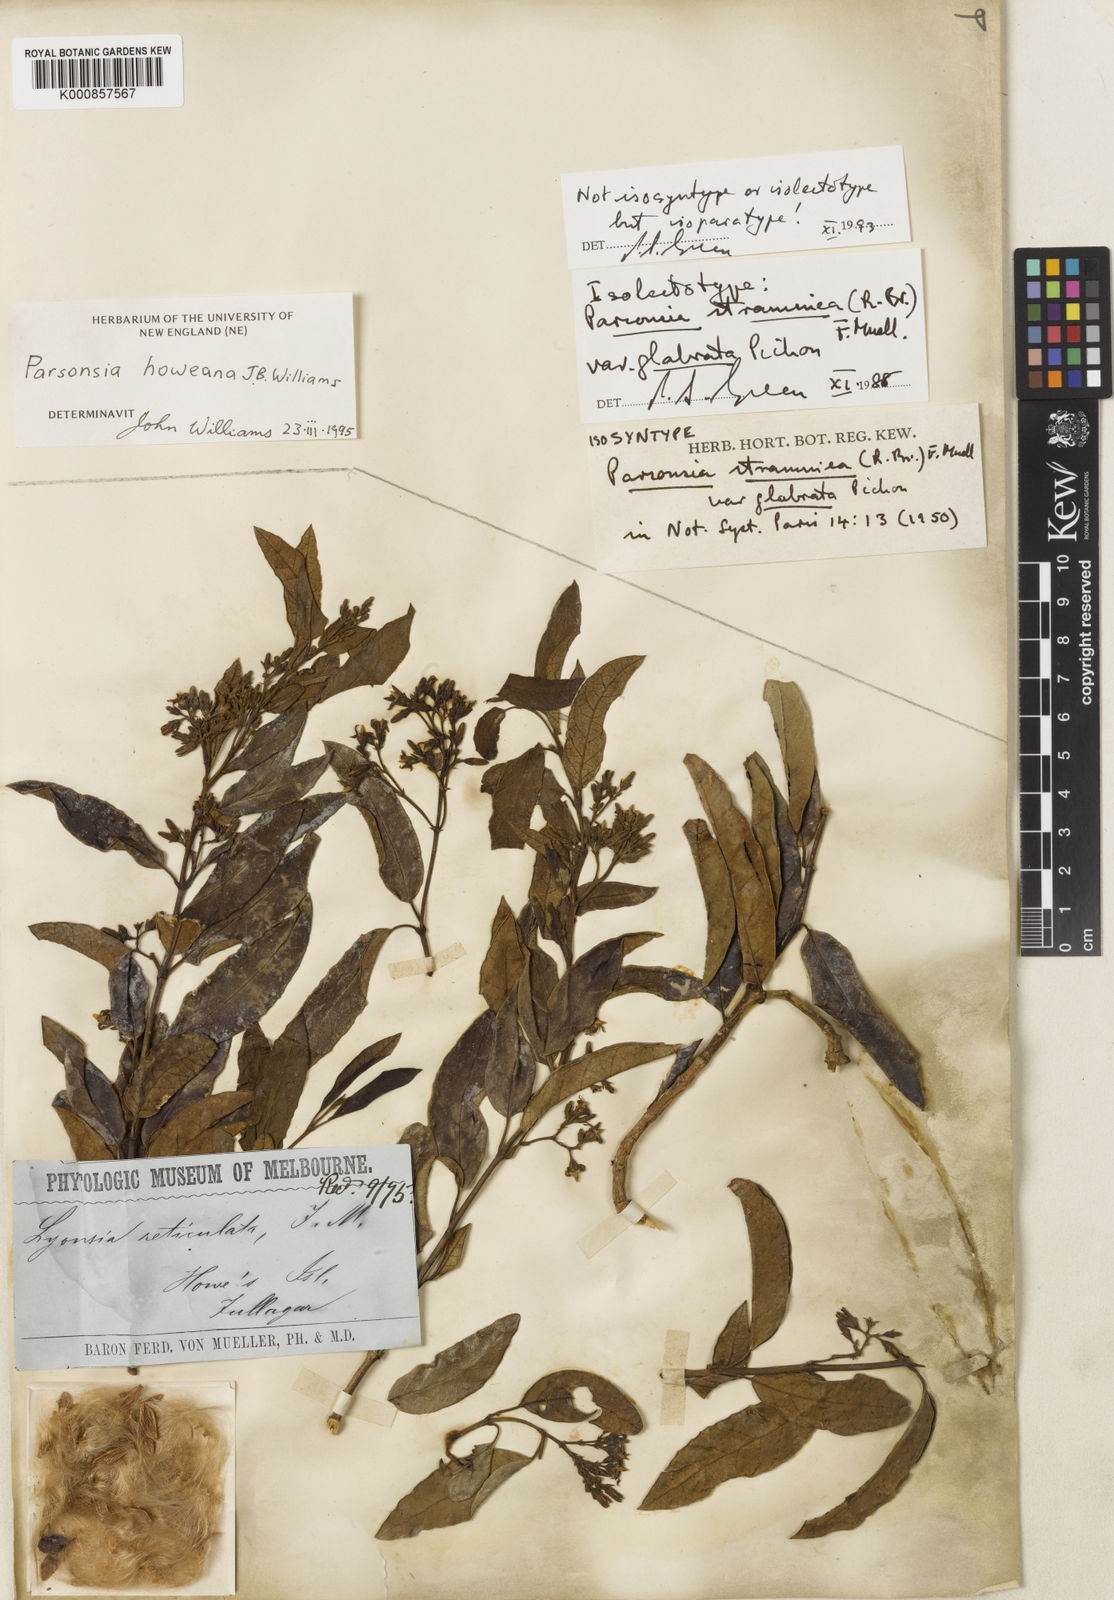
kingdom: Plantae
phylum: Tracheophyta
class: Magnoliopsida
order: Gentianales
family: Apocynaceae
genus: Parsonsia
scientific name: Parsonsia howeana
